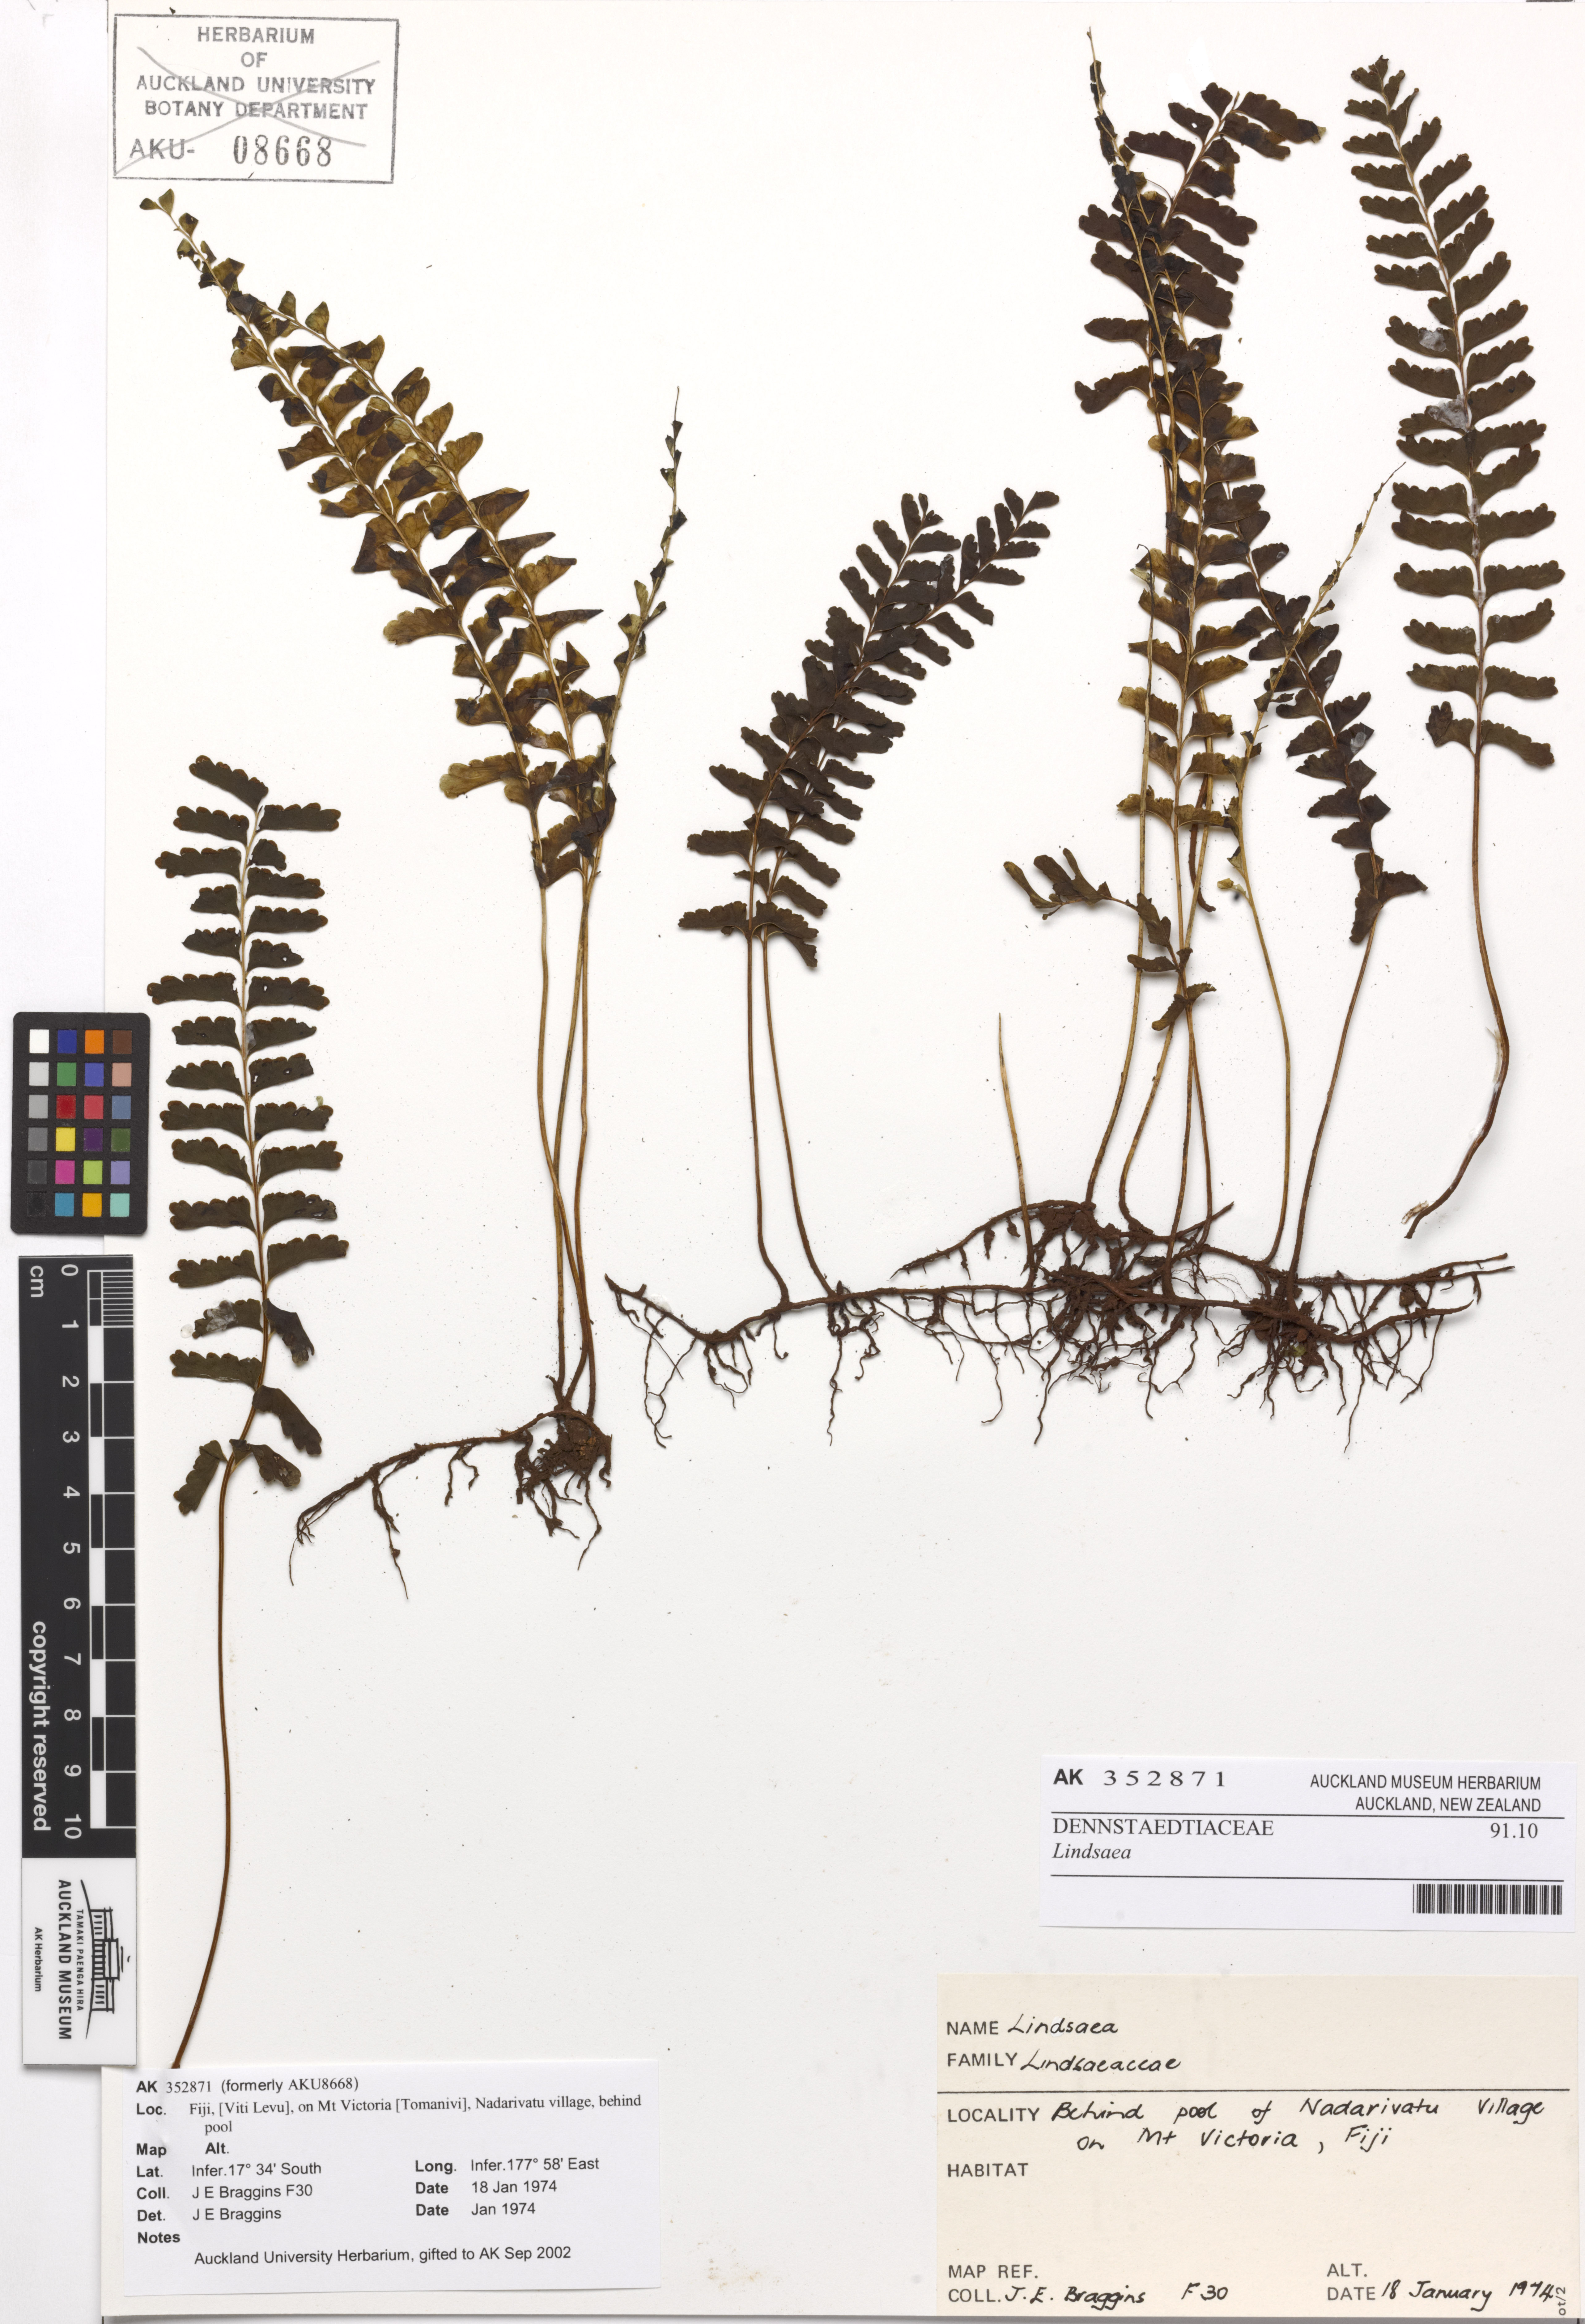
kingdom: Plantae
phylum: Tracheophyta
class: Polypodiopsida
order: Polypodiales
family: Lindsaeaceae
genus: Lindsaea
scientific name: Lindsaea
